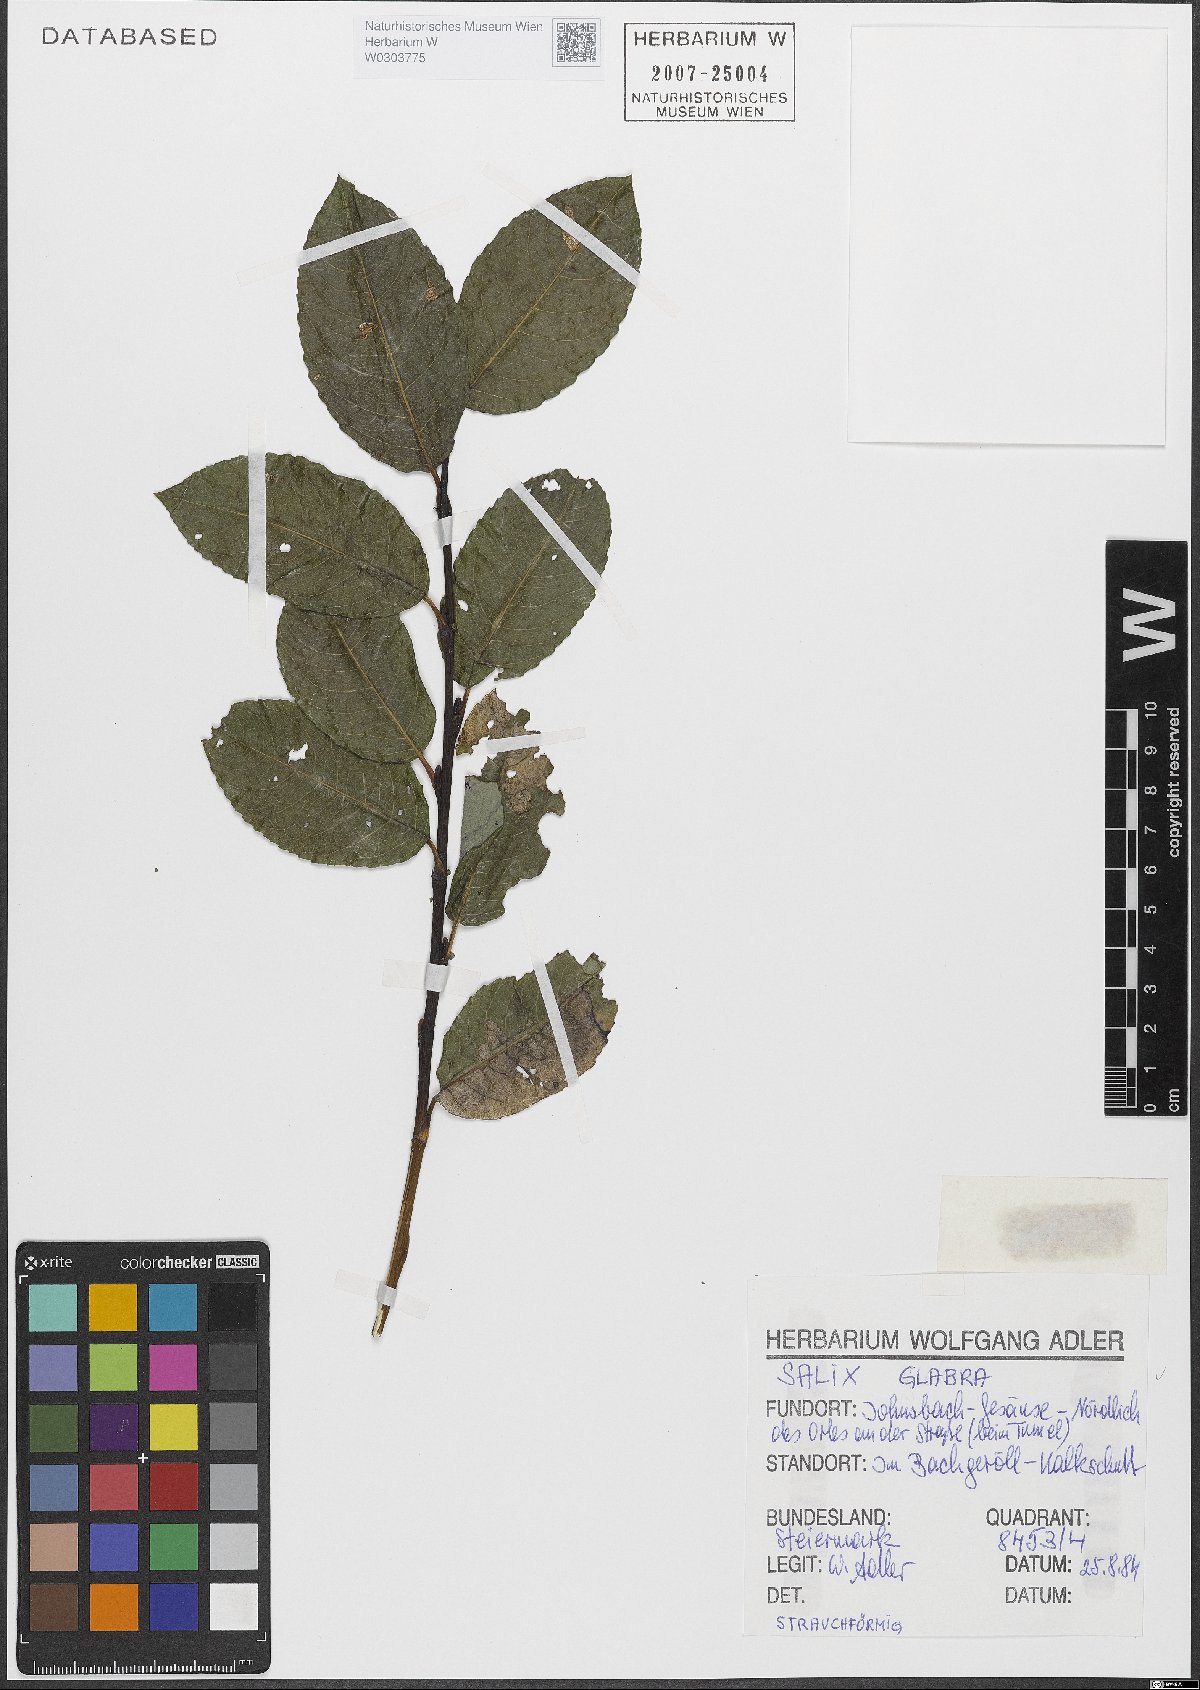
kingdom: Plantae
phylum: Tracheophyta
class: Magnoliopsida
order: Malpighiales
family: Salicaceae
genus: Salix
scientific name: Salix glabra
